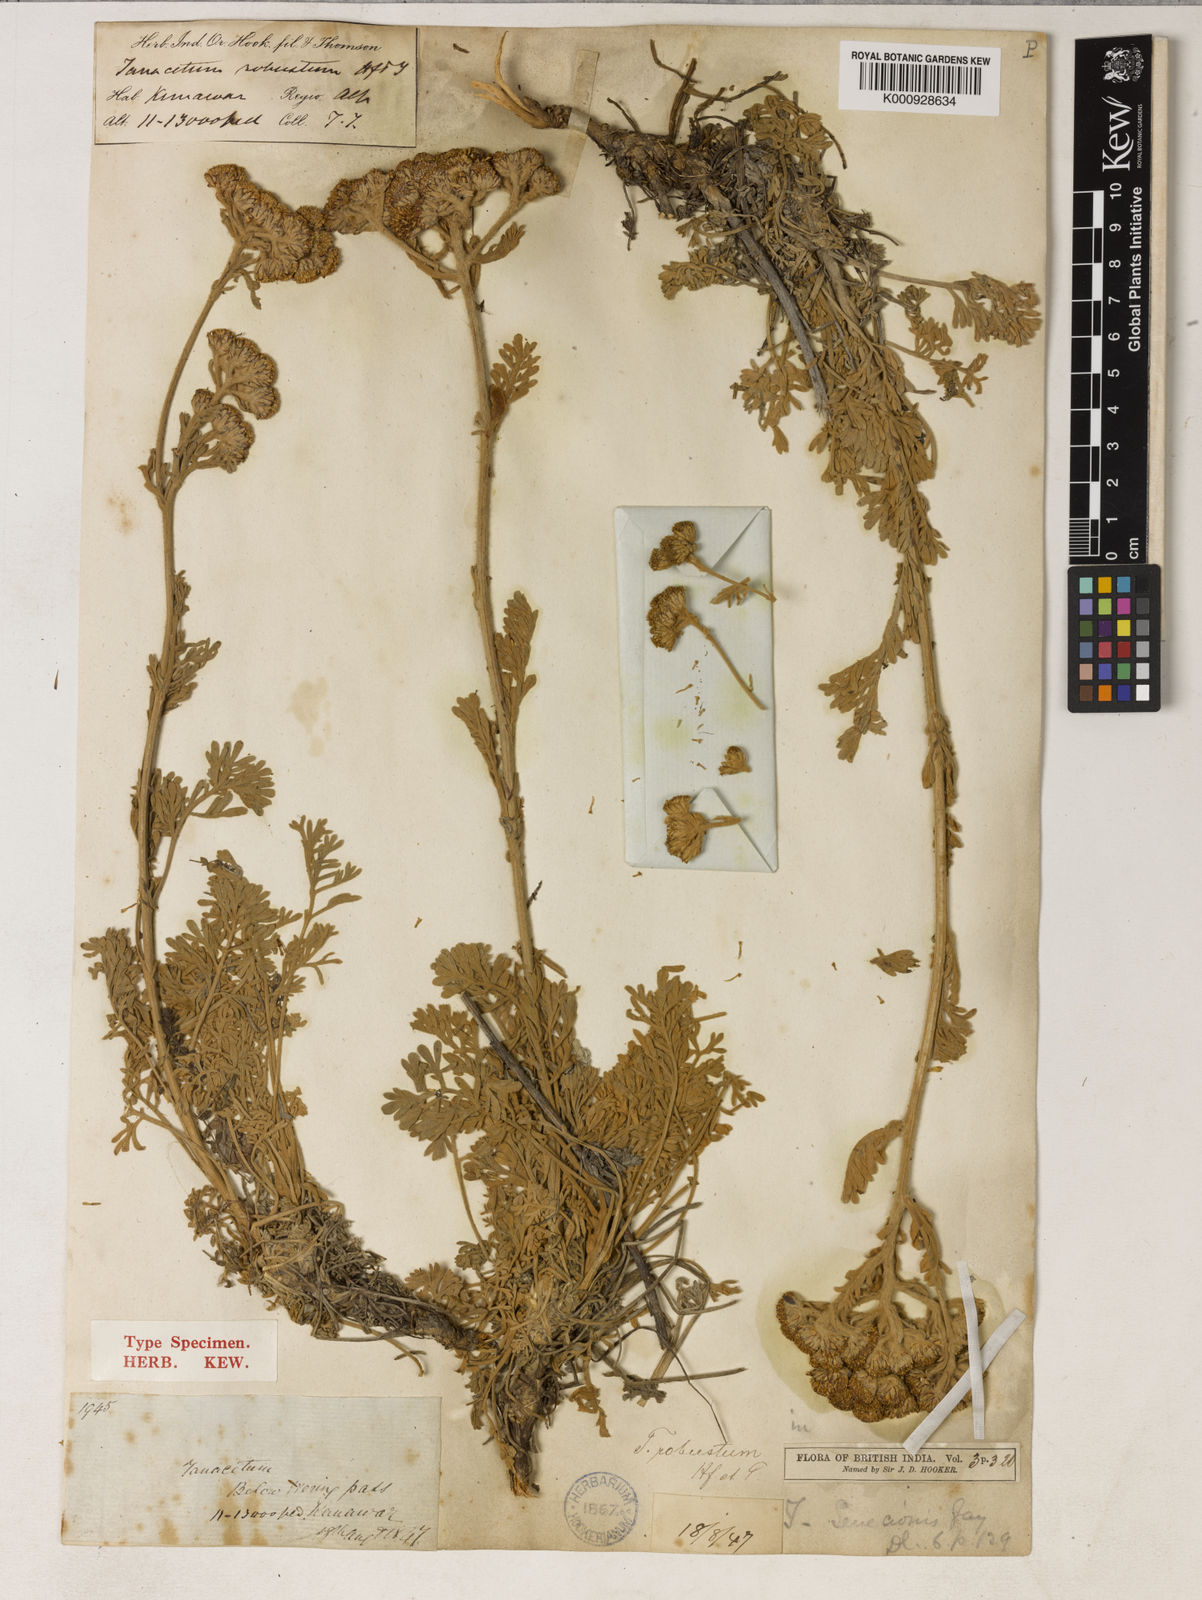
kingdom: Plantae
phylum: Tracheophyta
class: Magnoliopsida
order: Asterales
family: Asteraceae
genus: Tanacetum
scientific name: Tanacetum robustum
